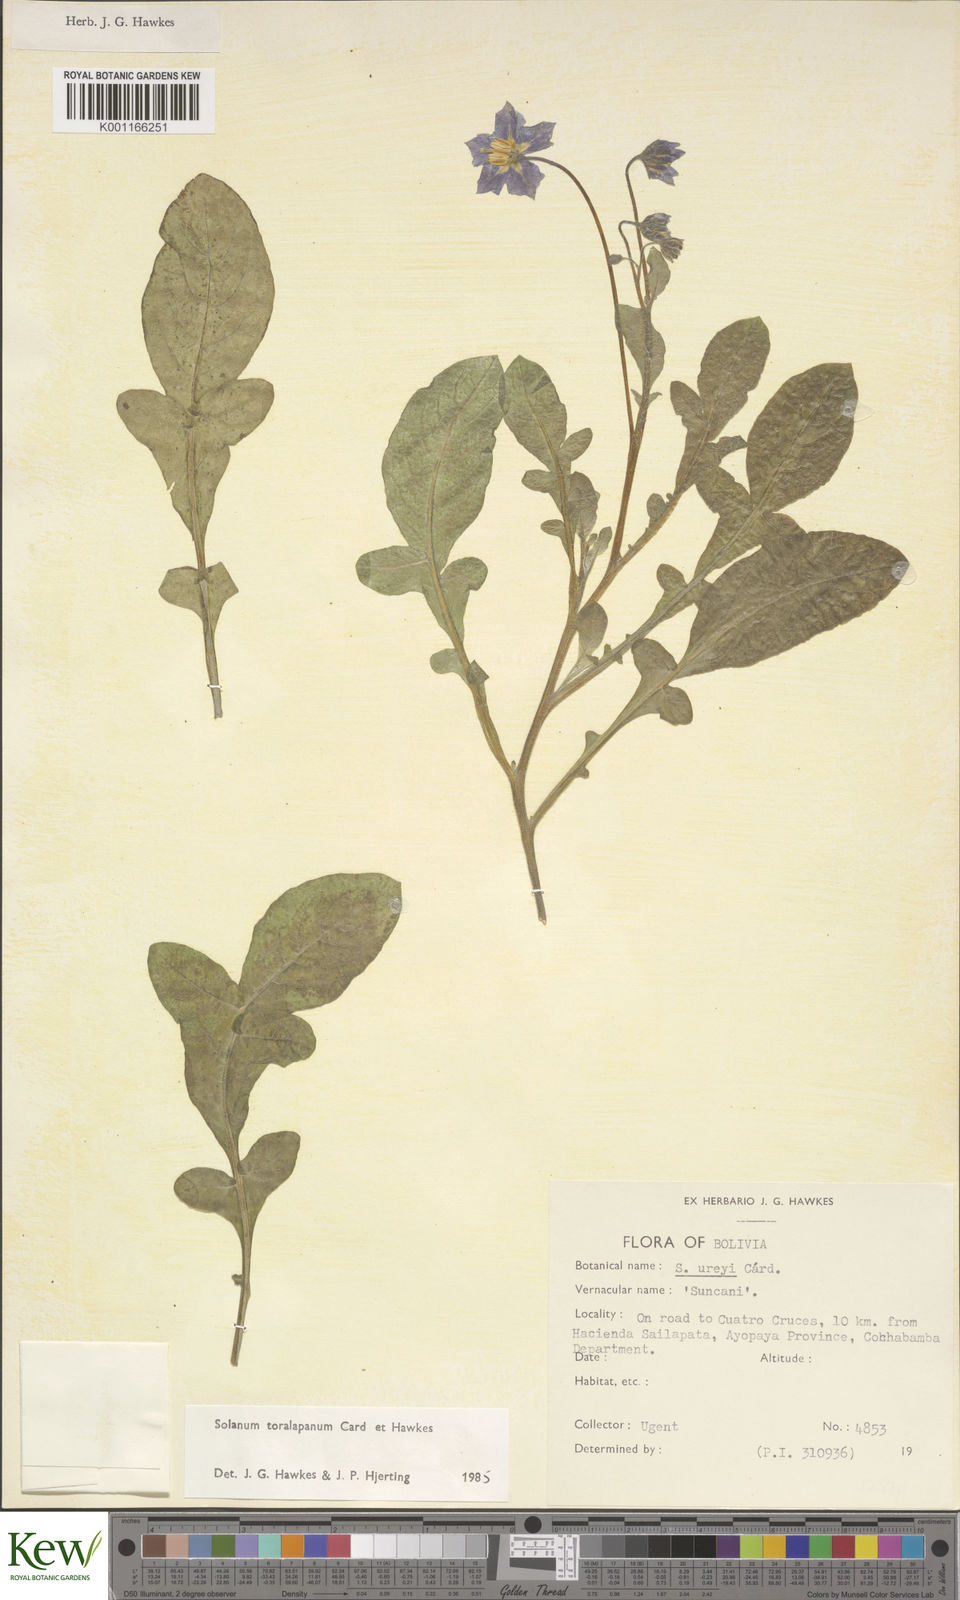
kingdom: Plantae
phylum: Tracheophyta
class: Magnoliopsida
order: Solanales
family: Solanaceae
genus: Solanum
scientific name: Solanum boliviense
